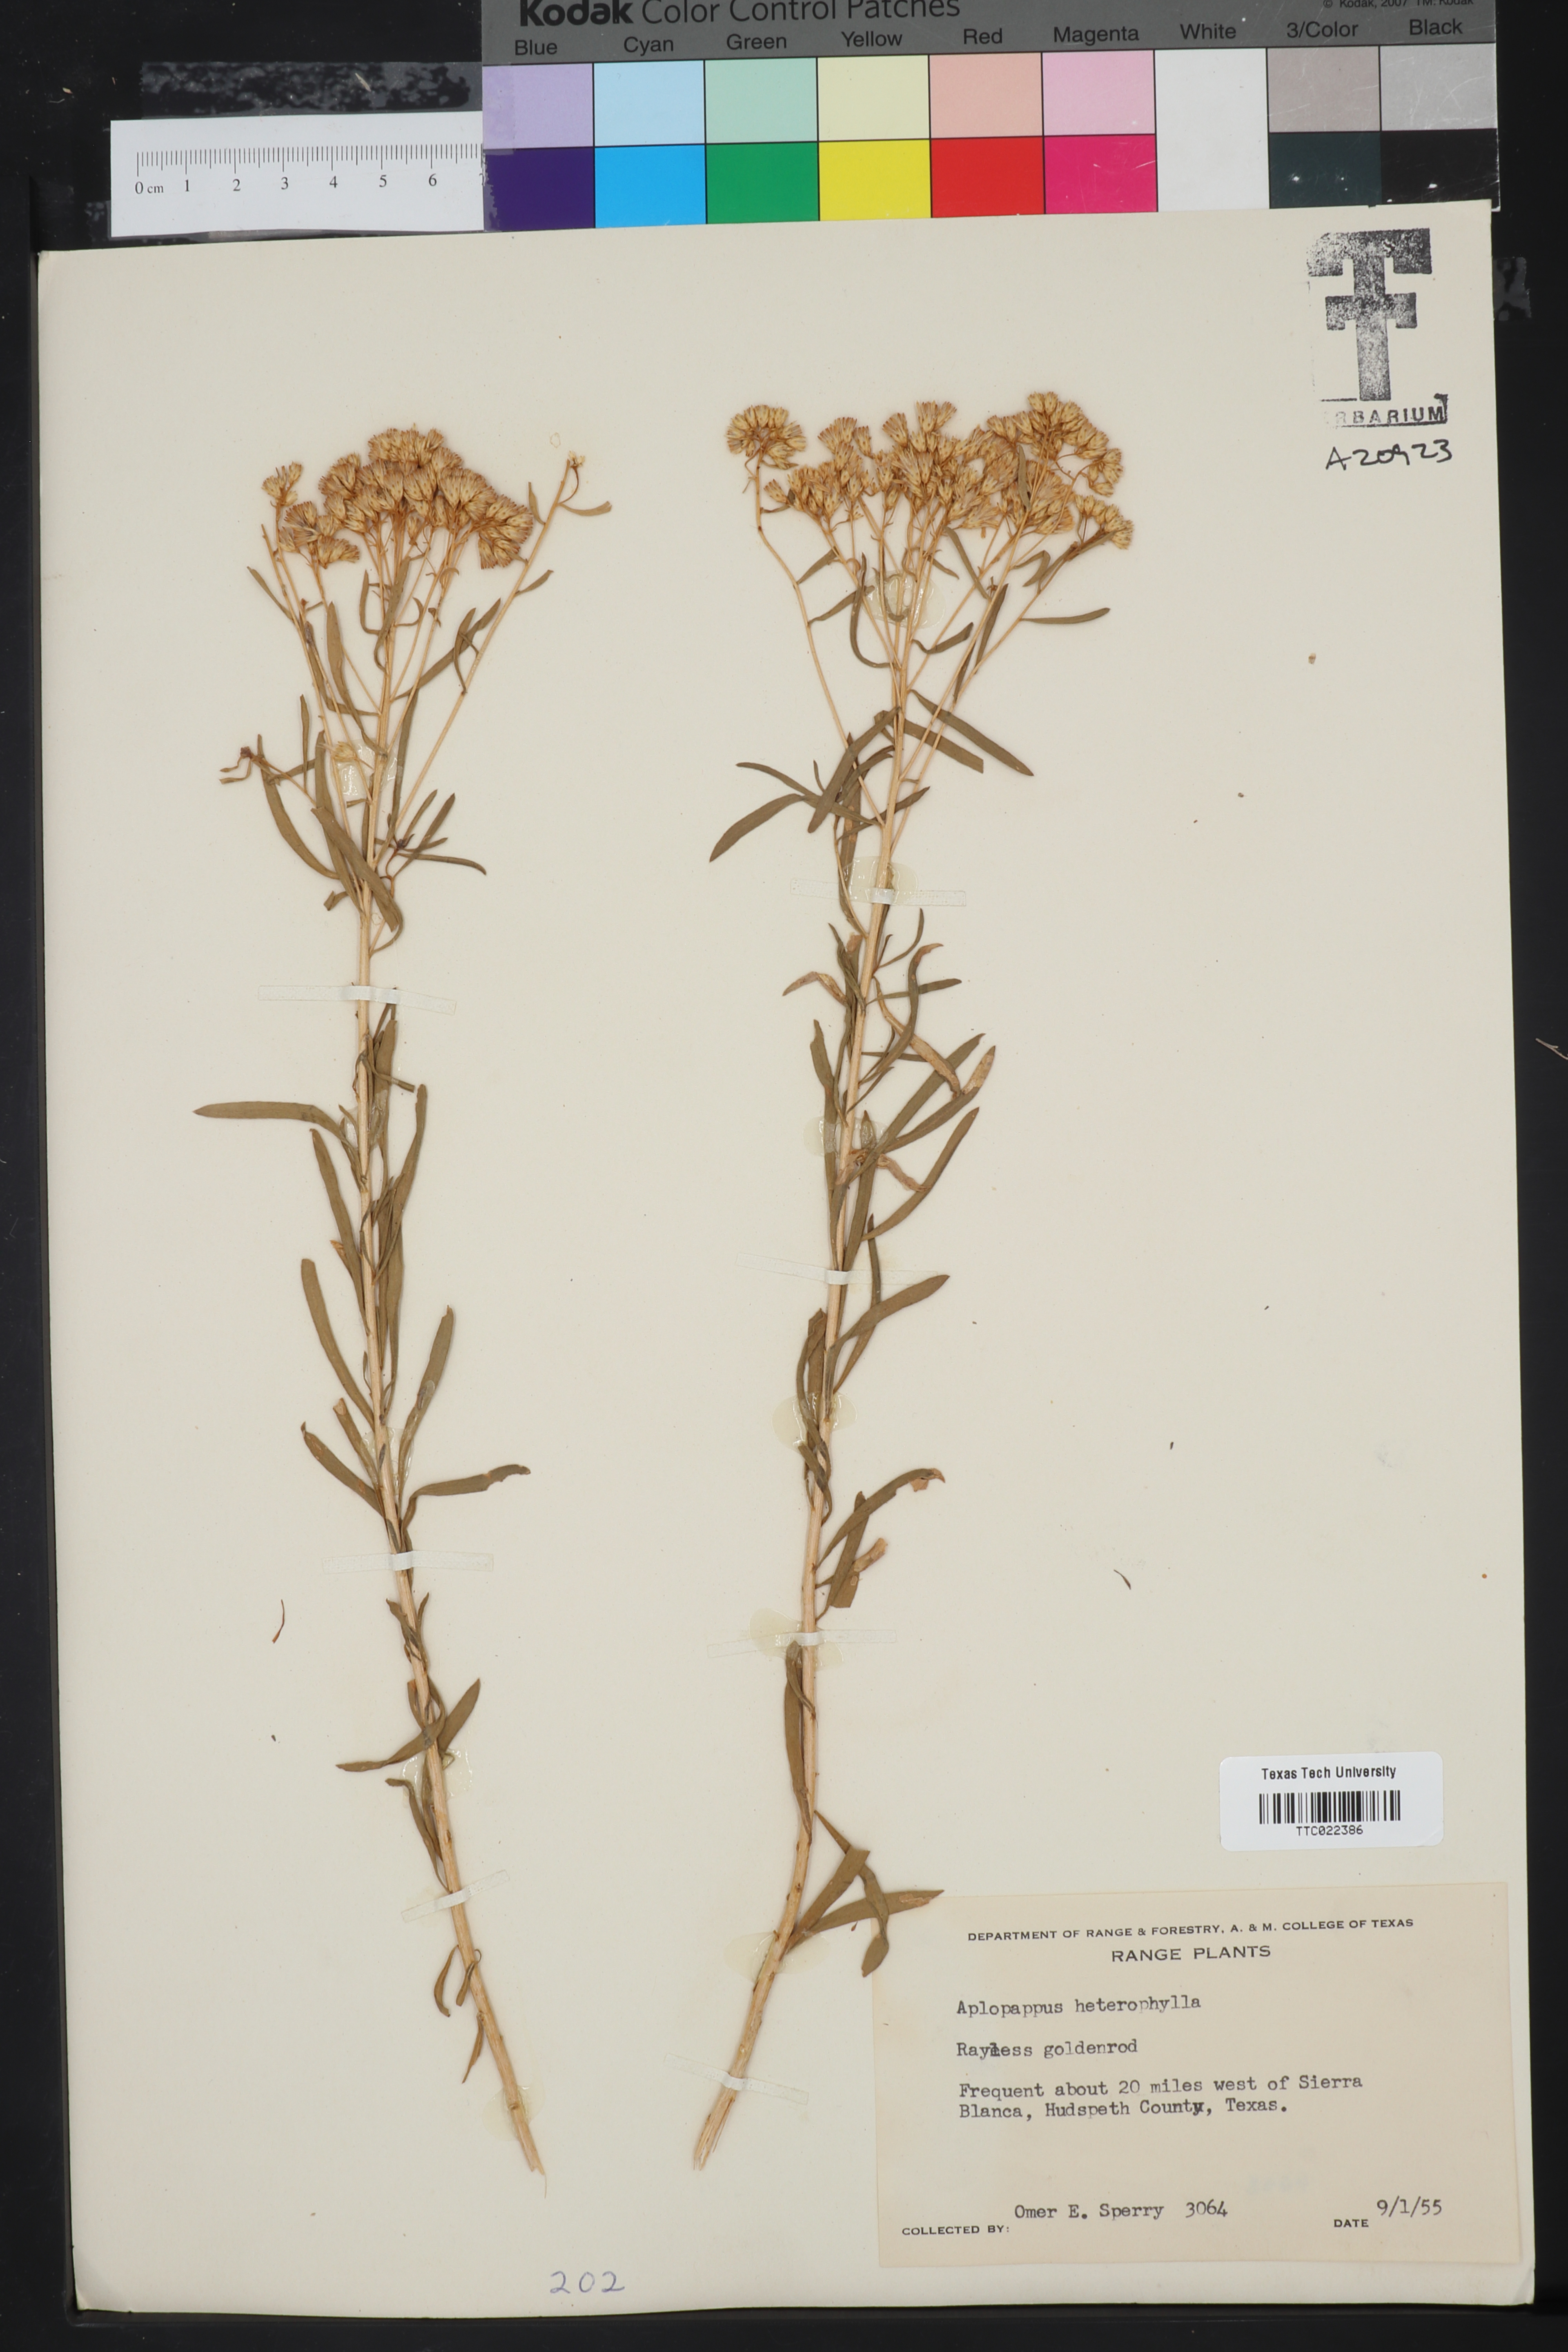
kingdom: Plantae
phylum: Tracheophyta
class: Magnoliopsida
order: Asterales
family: Asteraceae
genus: Aplopappus
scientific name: Aplopappus
